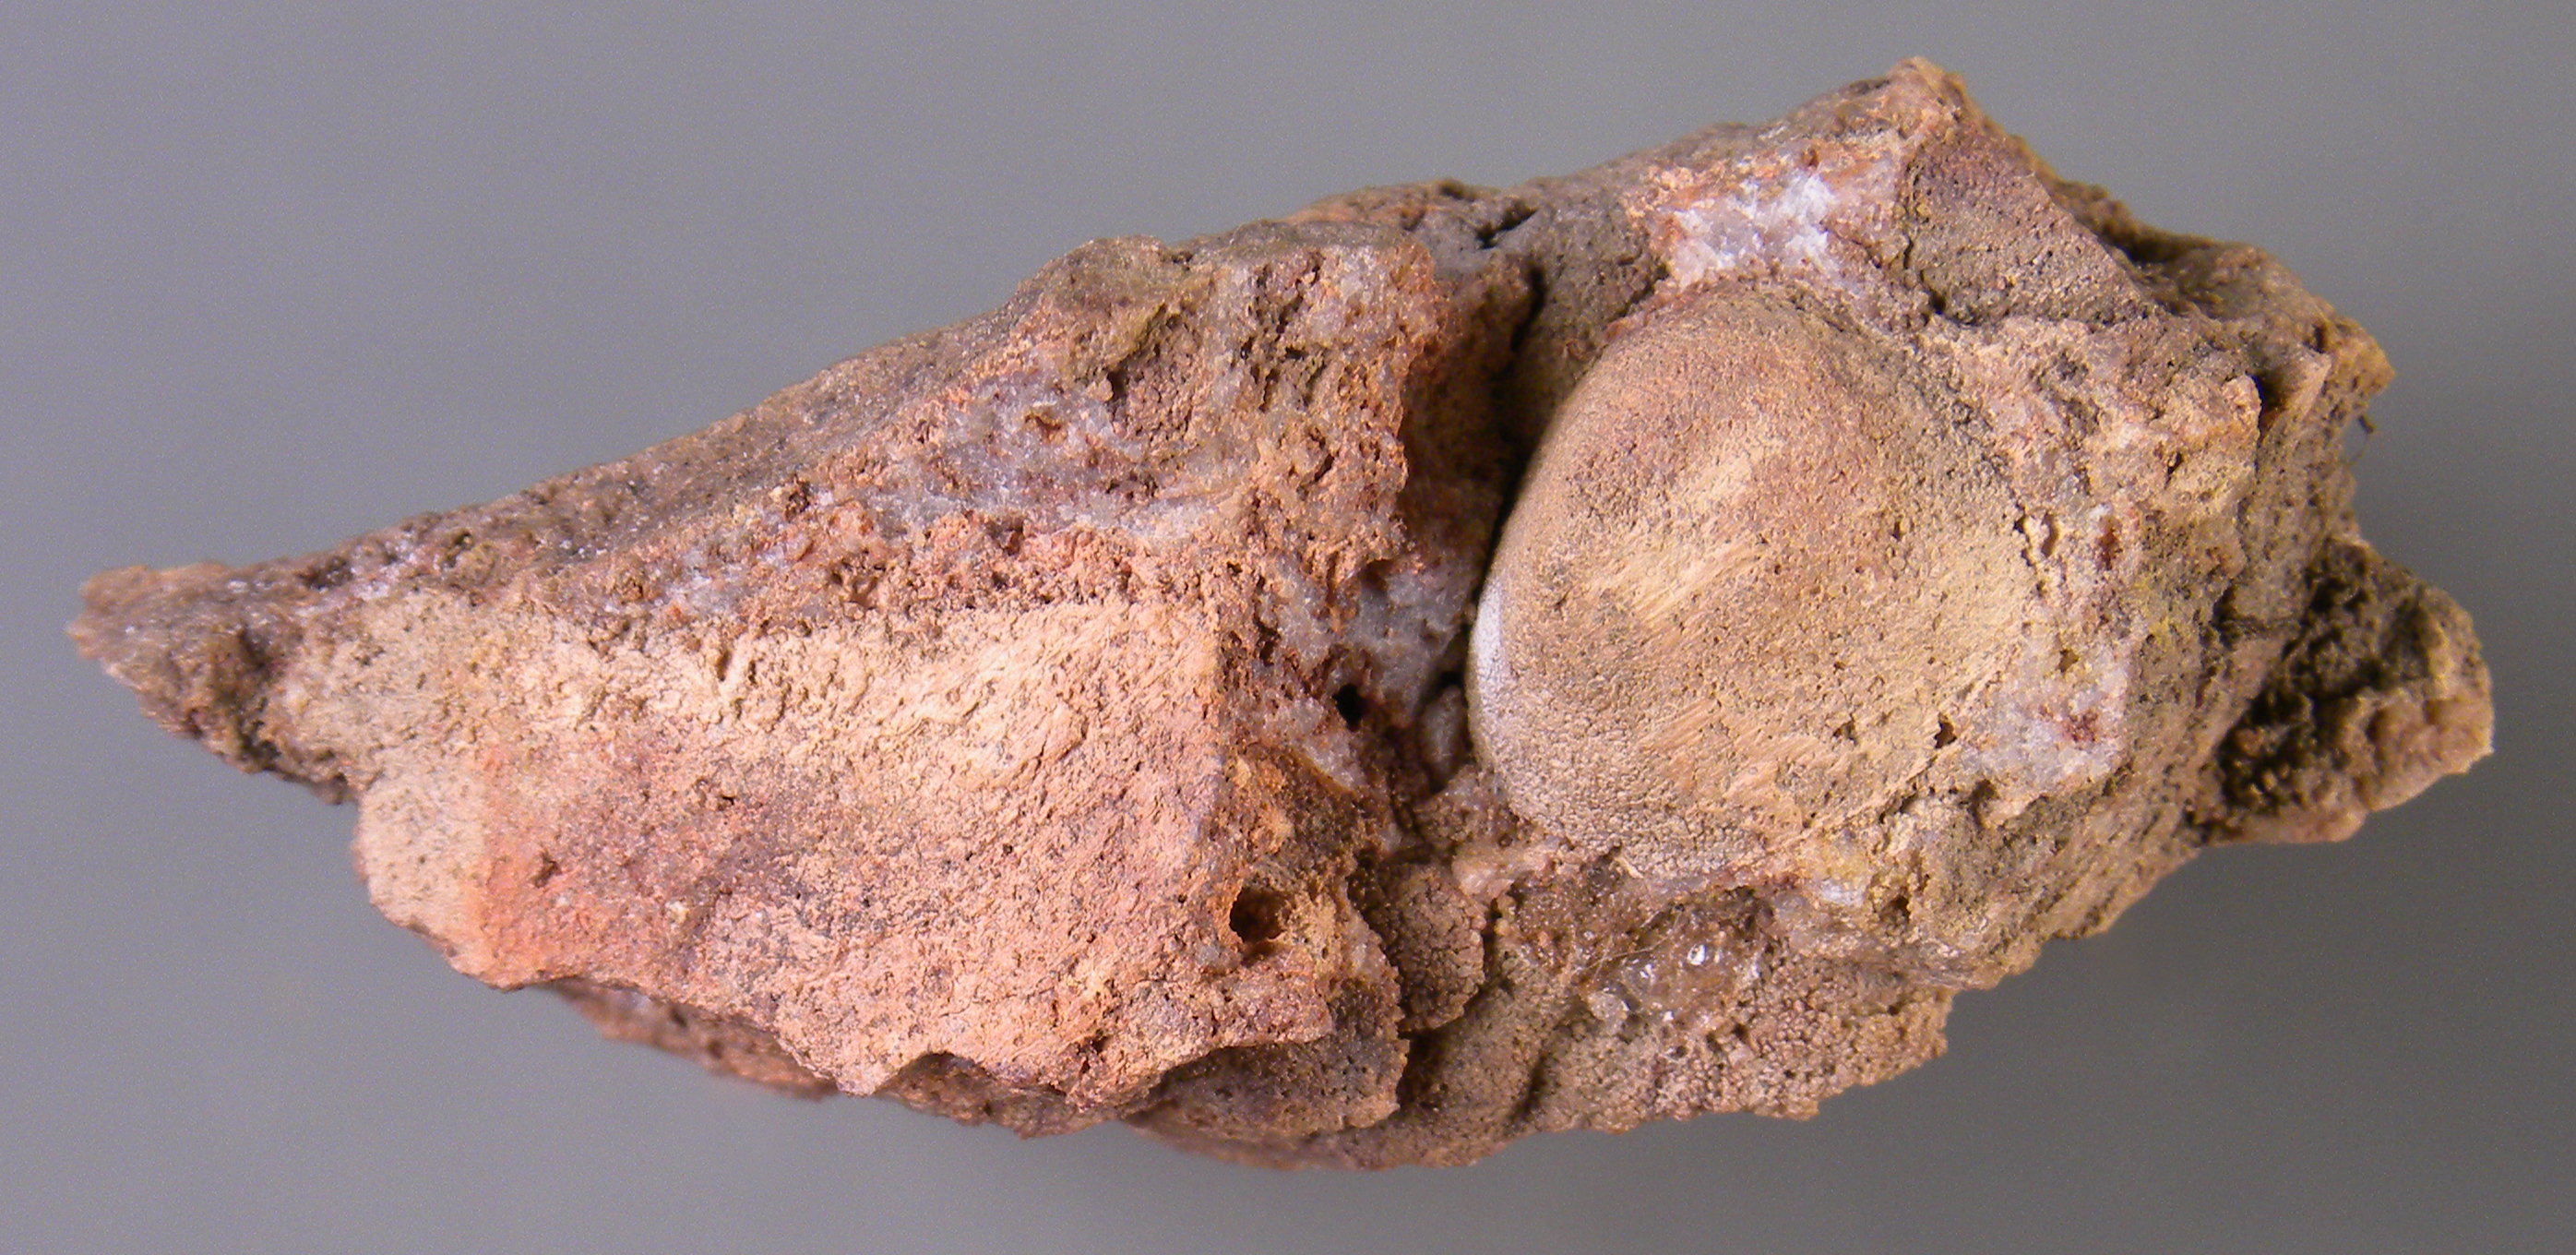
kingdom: Animalia
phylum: Brachiopoda
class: Craniata
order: Craniida
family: Craniidae
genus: Petrocrania
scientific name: Petrocrania
